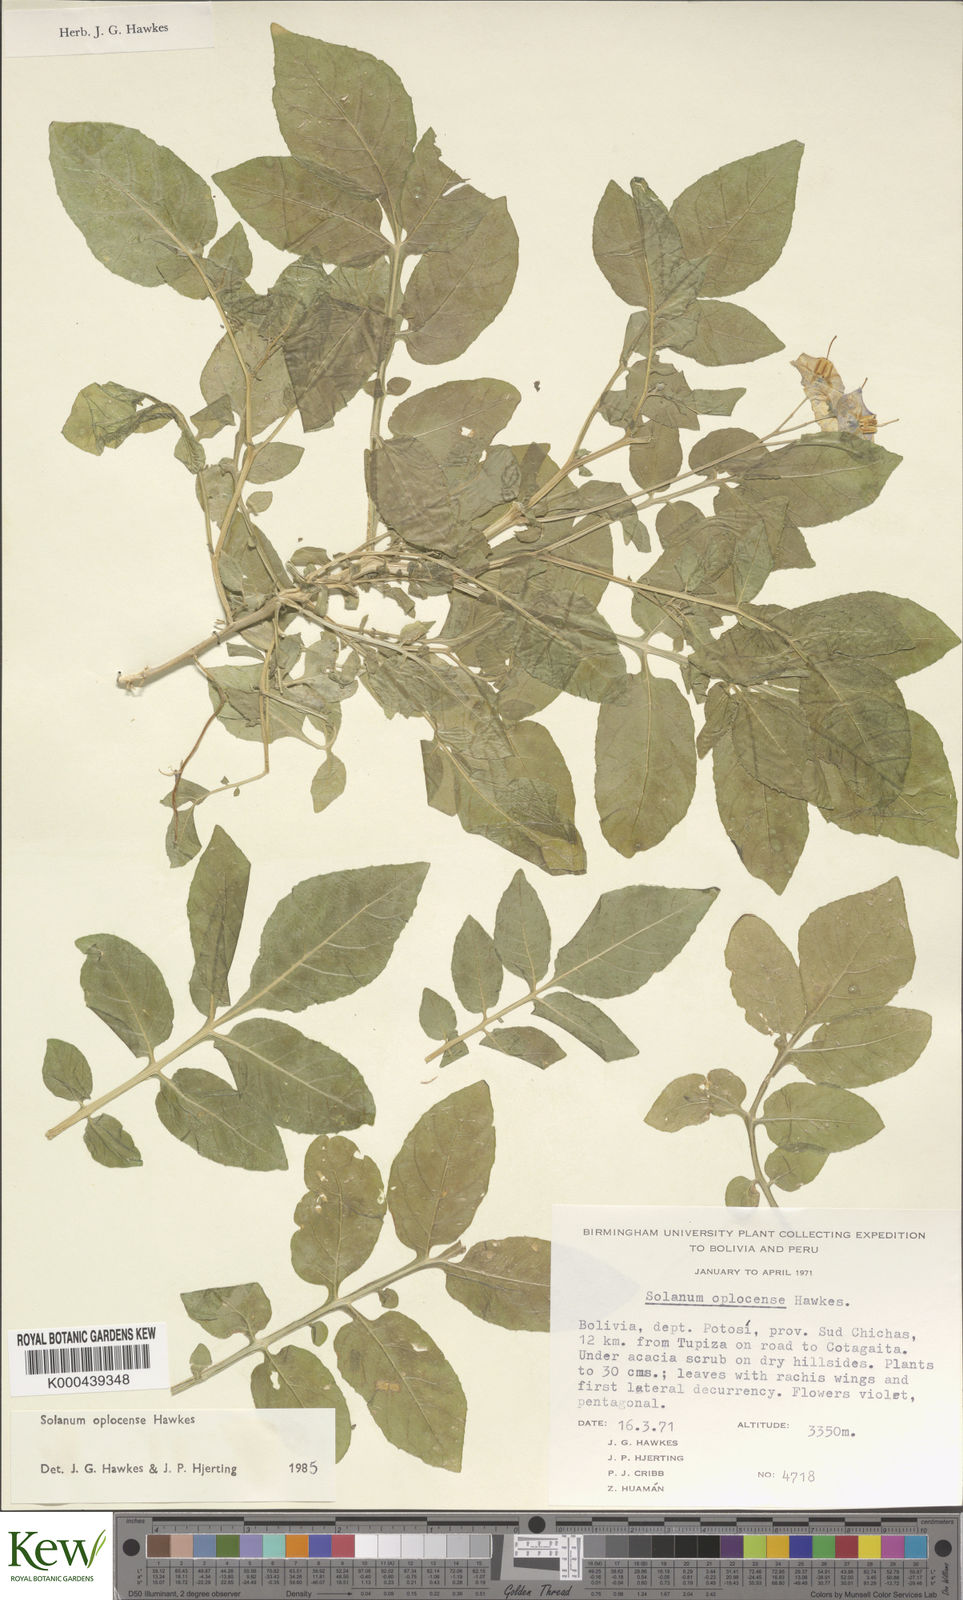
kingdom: Plantae
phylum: Tracheophyta
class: Magnoliopsida
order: Solanales
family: Solanaceae
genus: Solanum
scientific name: Solanum brevicaule
